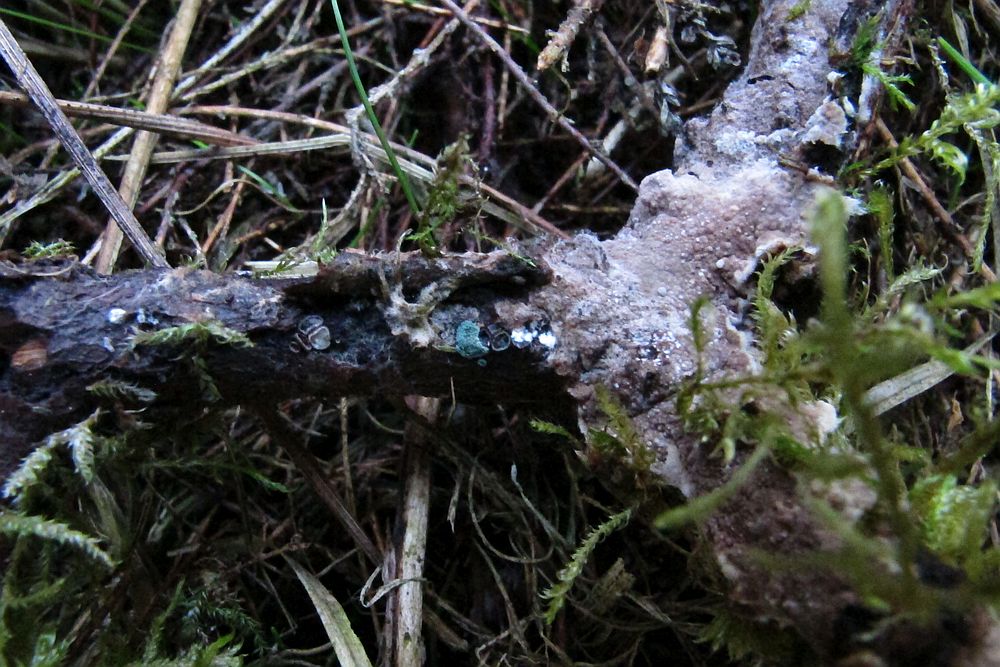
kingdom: Fungi
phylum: Basidiomycota
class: Agaricomycetes
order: Thelephorales
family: Thelephoraceae
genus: Tomentella
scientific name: Tomentella
